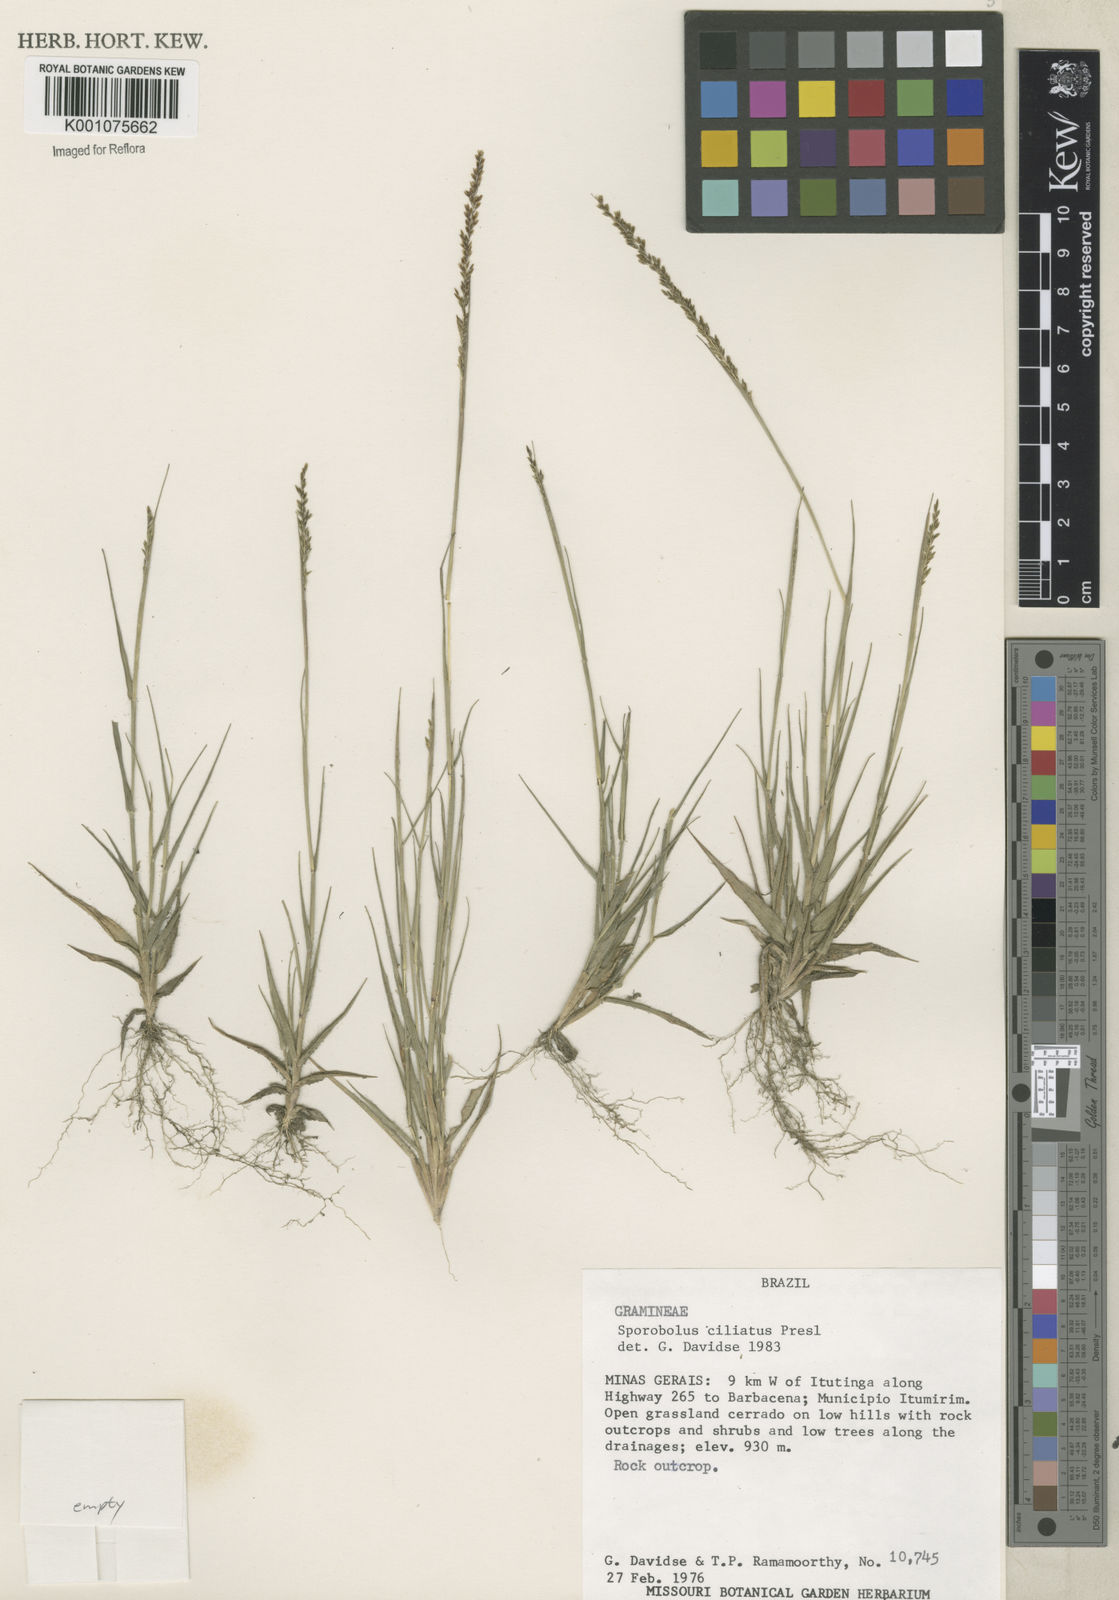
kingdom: Plantae
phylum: Tracheophyta
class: Liliopsida
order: Poales
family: Poaceae
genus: Sporobolus
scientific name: Sporobolus pilifer
